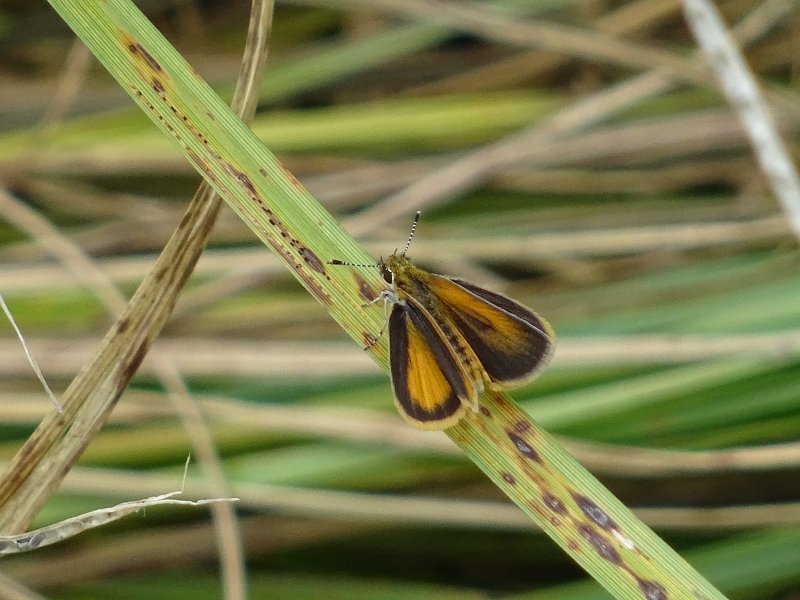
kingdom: Animalia
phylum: Arthropoda
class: Insecta
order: Lepidoptera
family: Hesperiidae
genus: Ancyloxypha
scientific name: Ancyloxypha numitor
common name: Least Skipper
